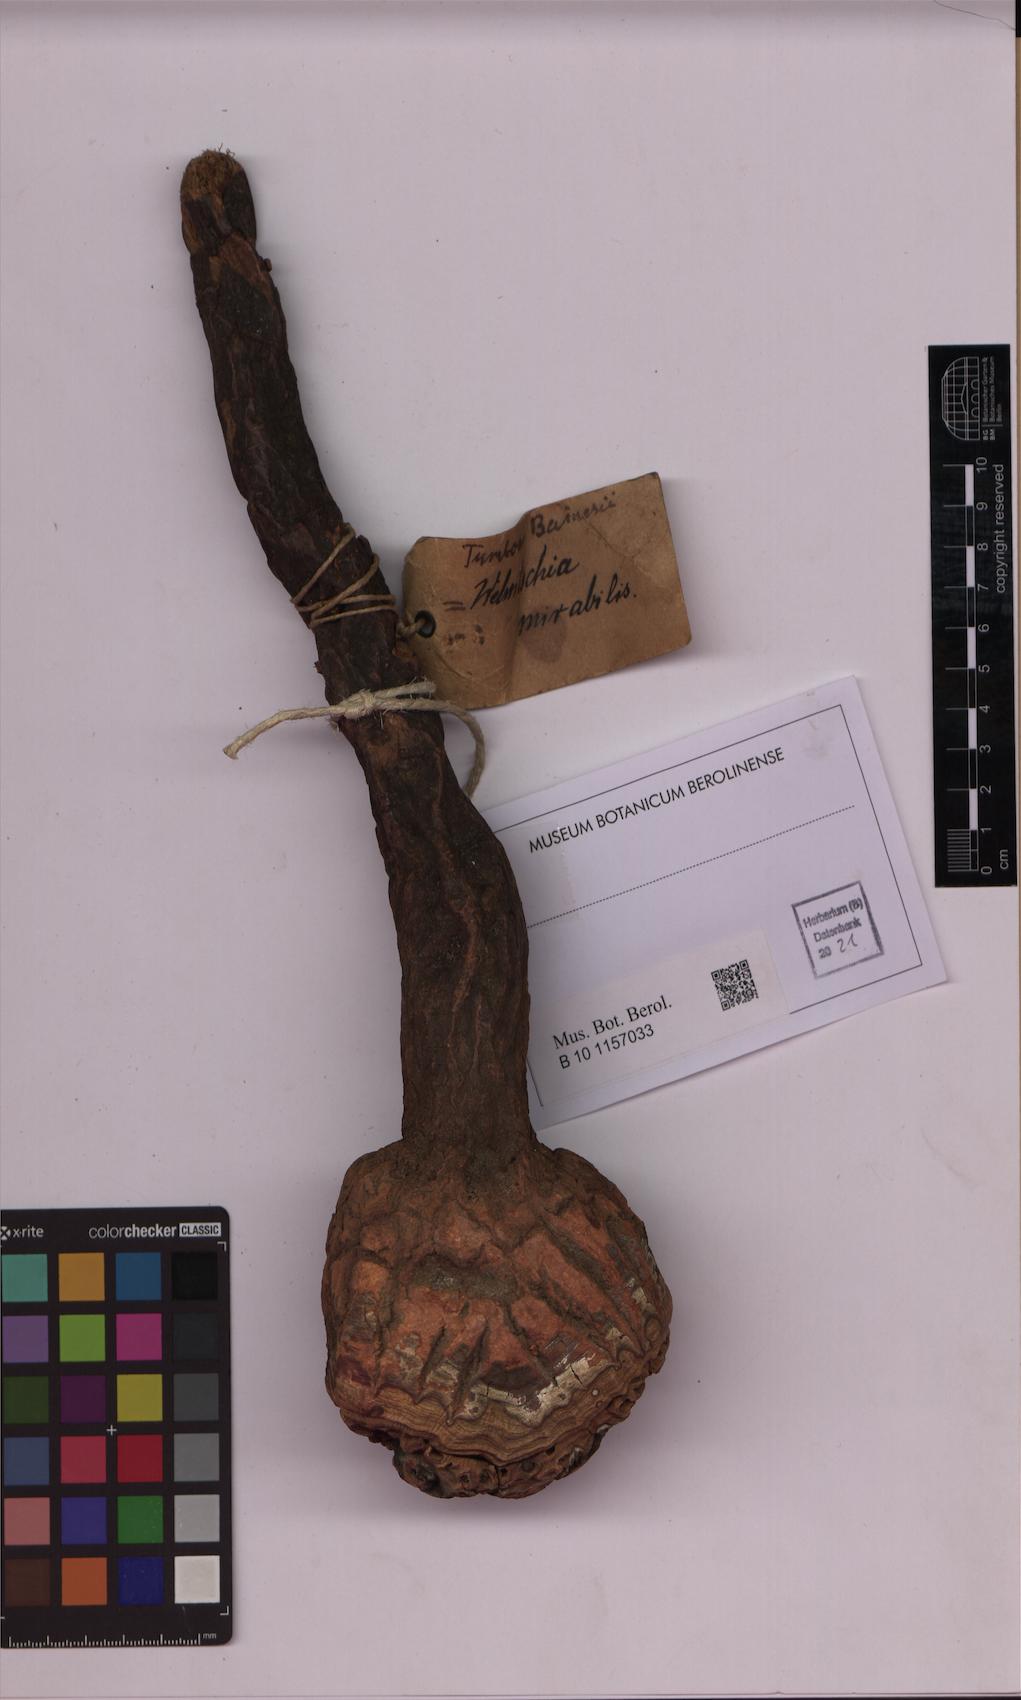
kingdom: Plantae
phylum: Tracheophyta
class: Gnetopsida
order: Welwitschiales
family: Welwitschiaceae
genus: Welwitschia
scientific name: Welwitschia mirabilis
